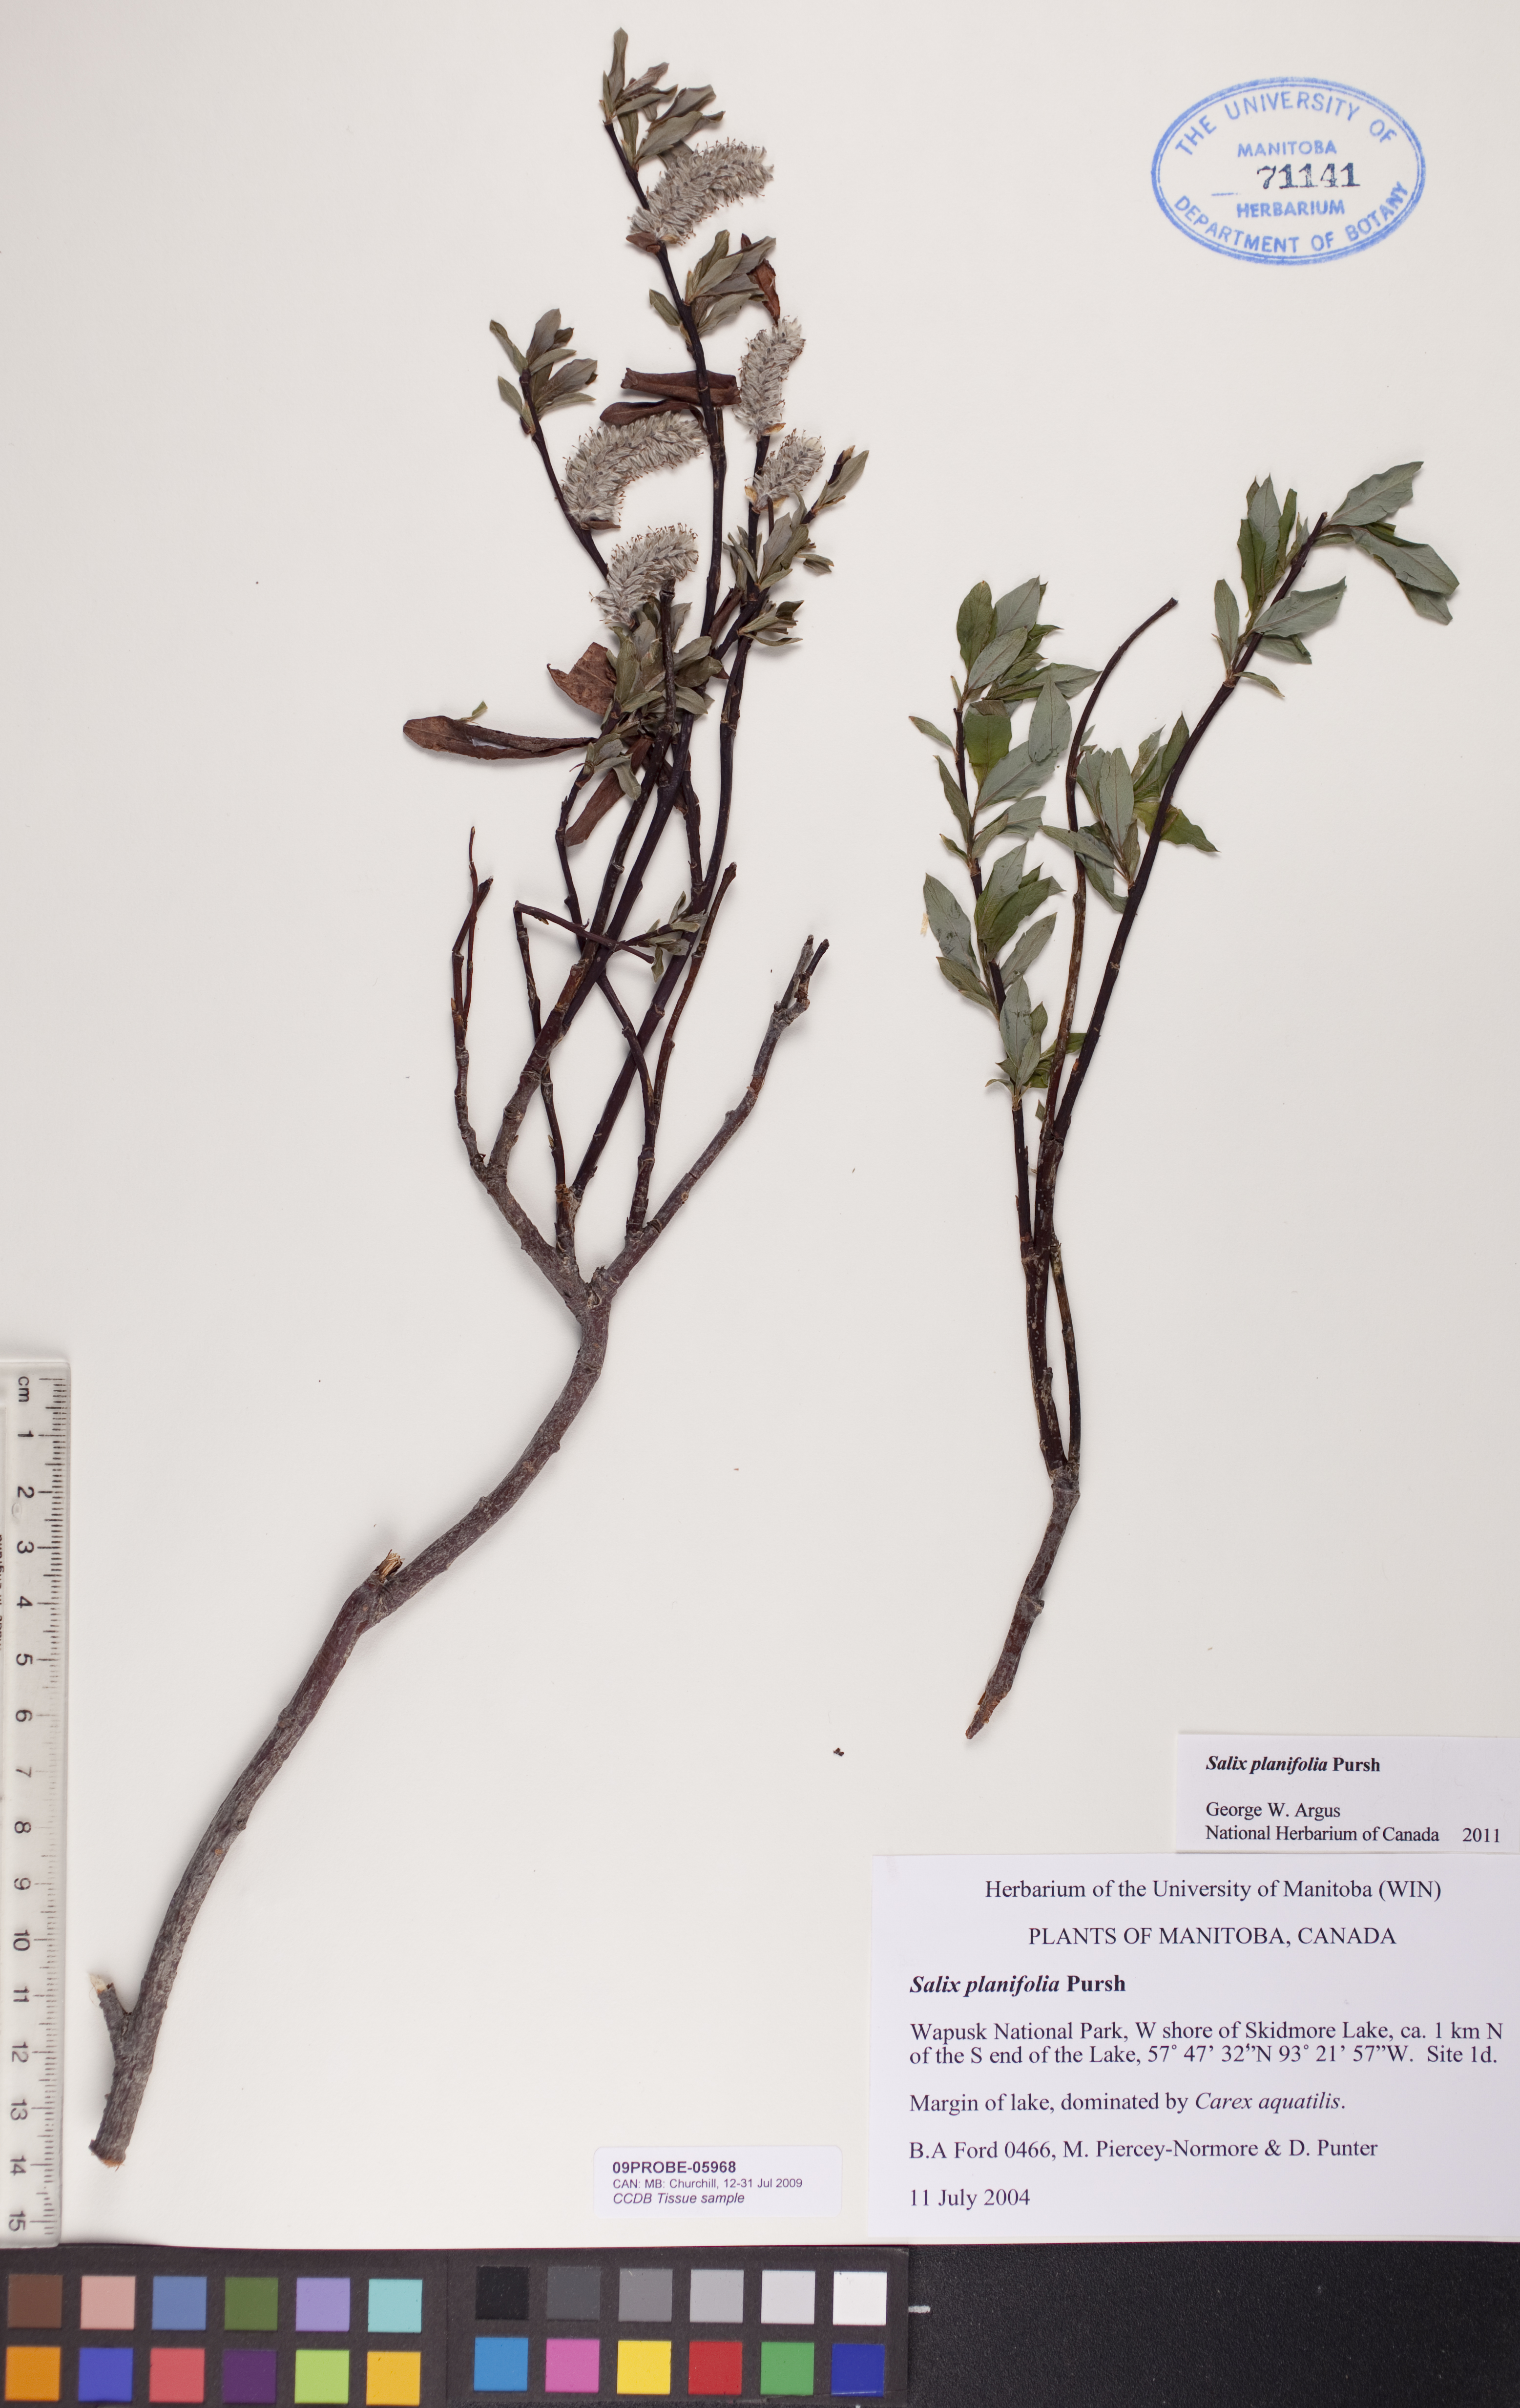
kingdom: Plantae
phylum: Tracheophyta
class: Magnoliopsida
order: Malpighiales
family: Salicaceae
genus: Salix
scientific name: Salix planifolia
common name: Mountain willow
